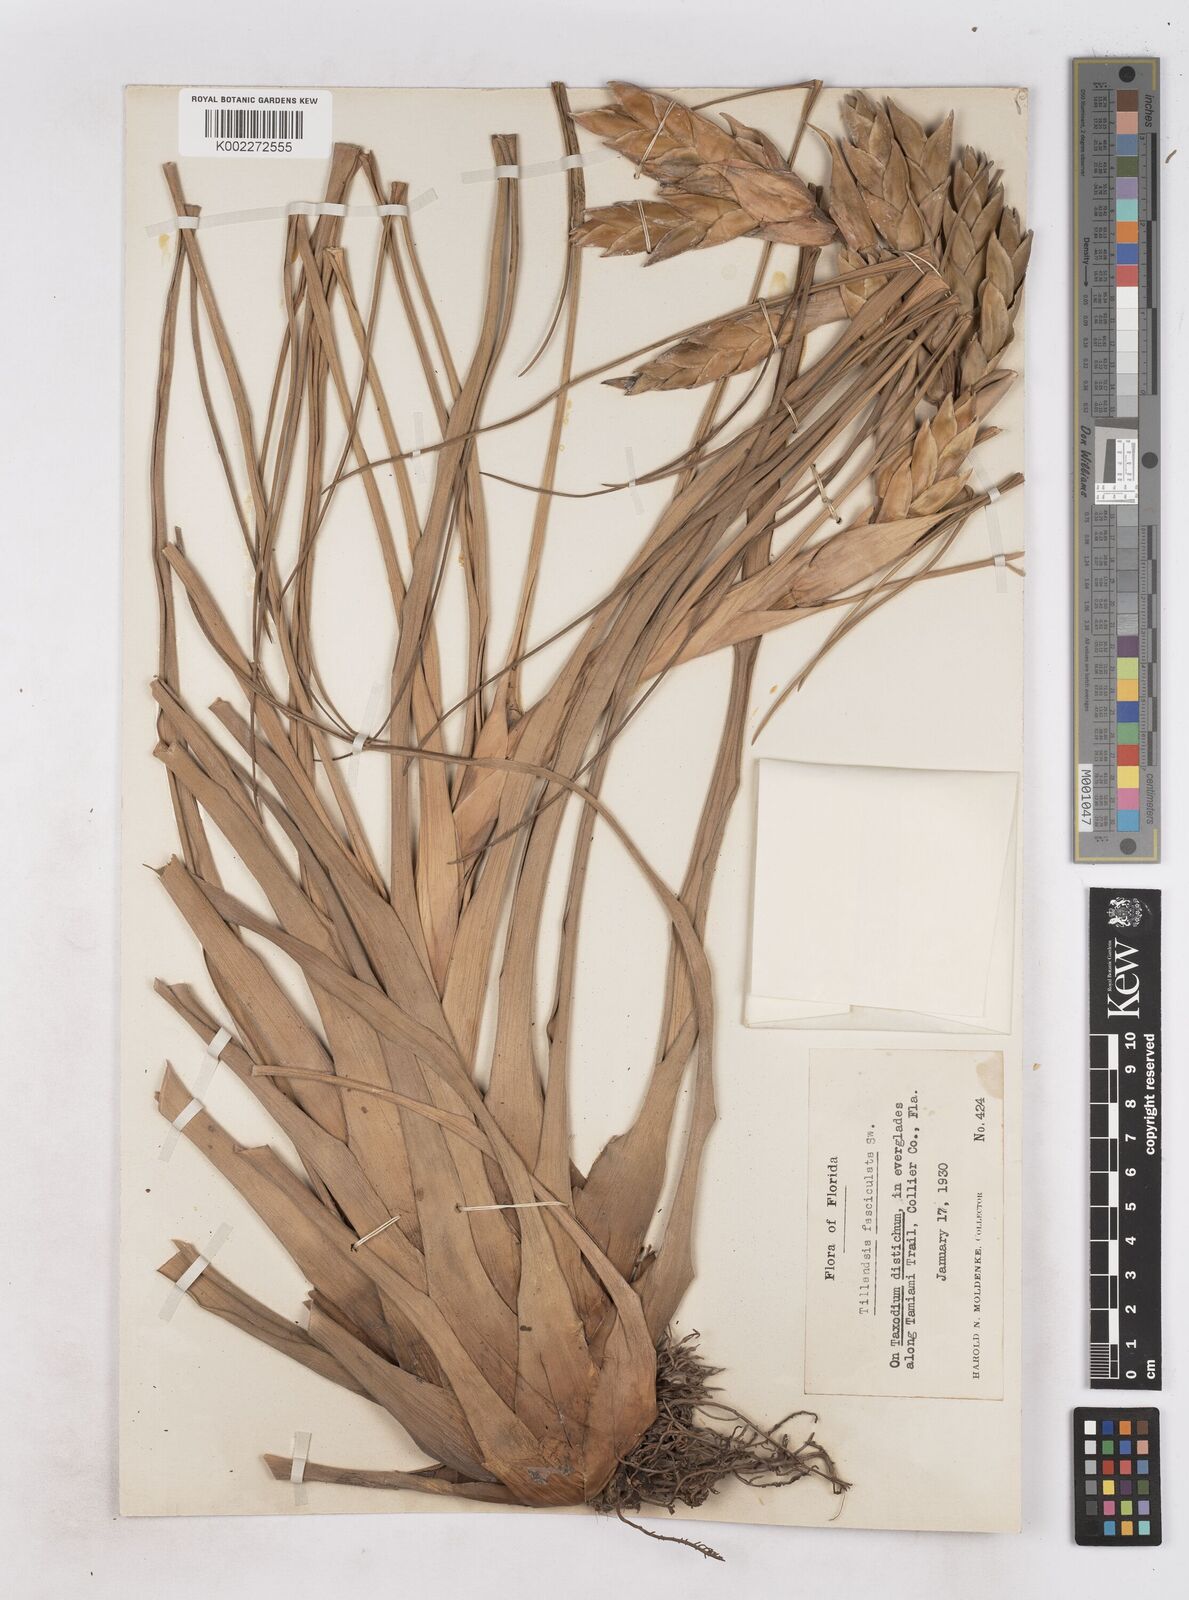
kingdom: Plantae
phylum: Tracheophyta
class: Liliopsida
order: Poales
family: Bromeliaceae
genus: Tillandsia
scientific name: Tillandsia fasciculata
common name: Giant airplant
